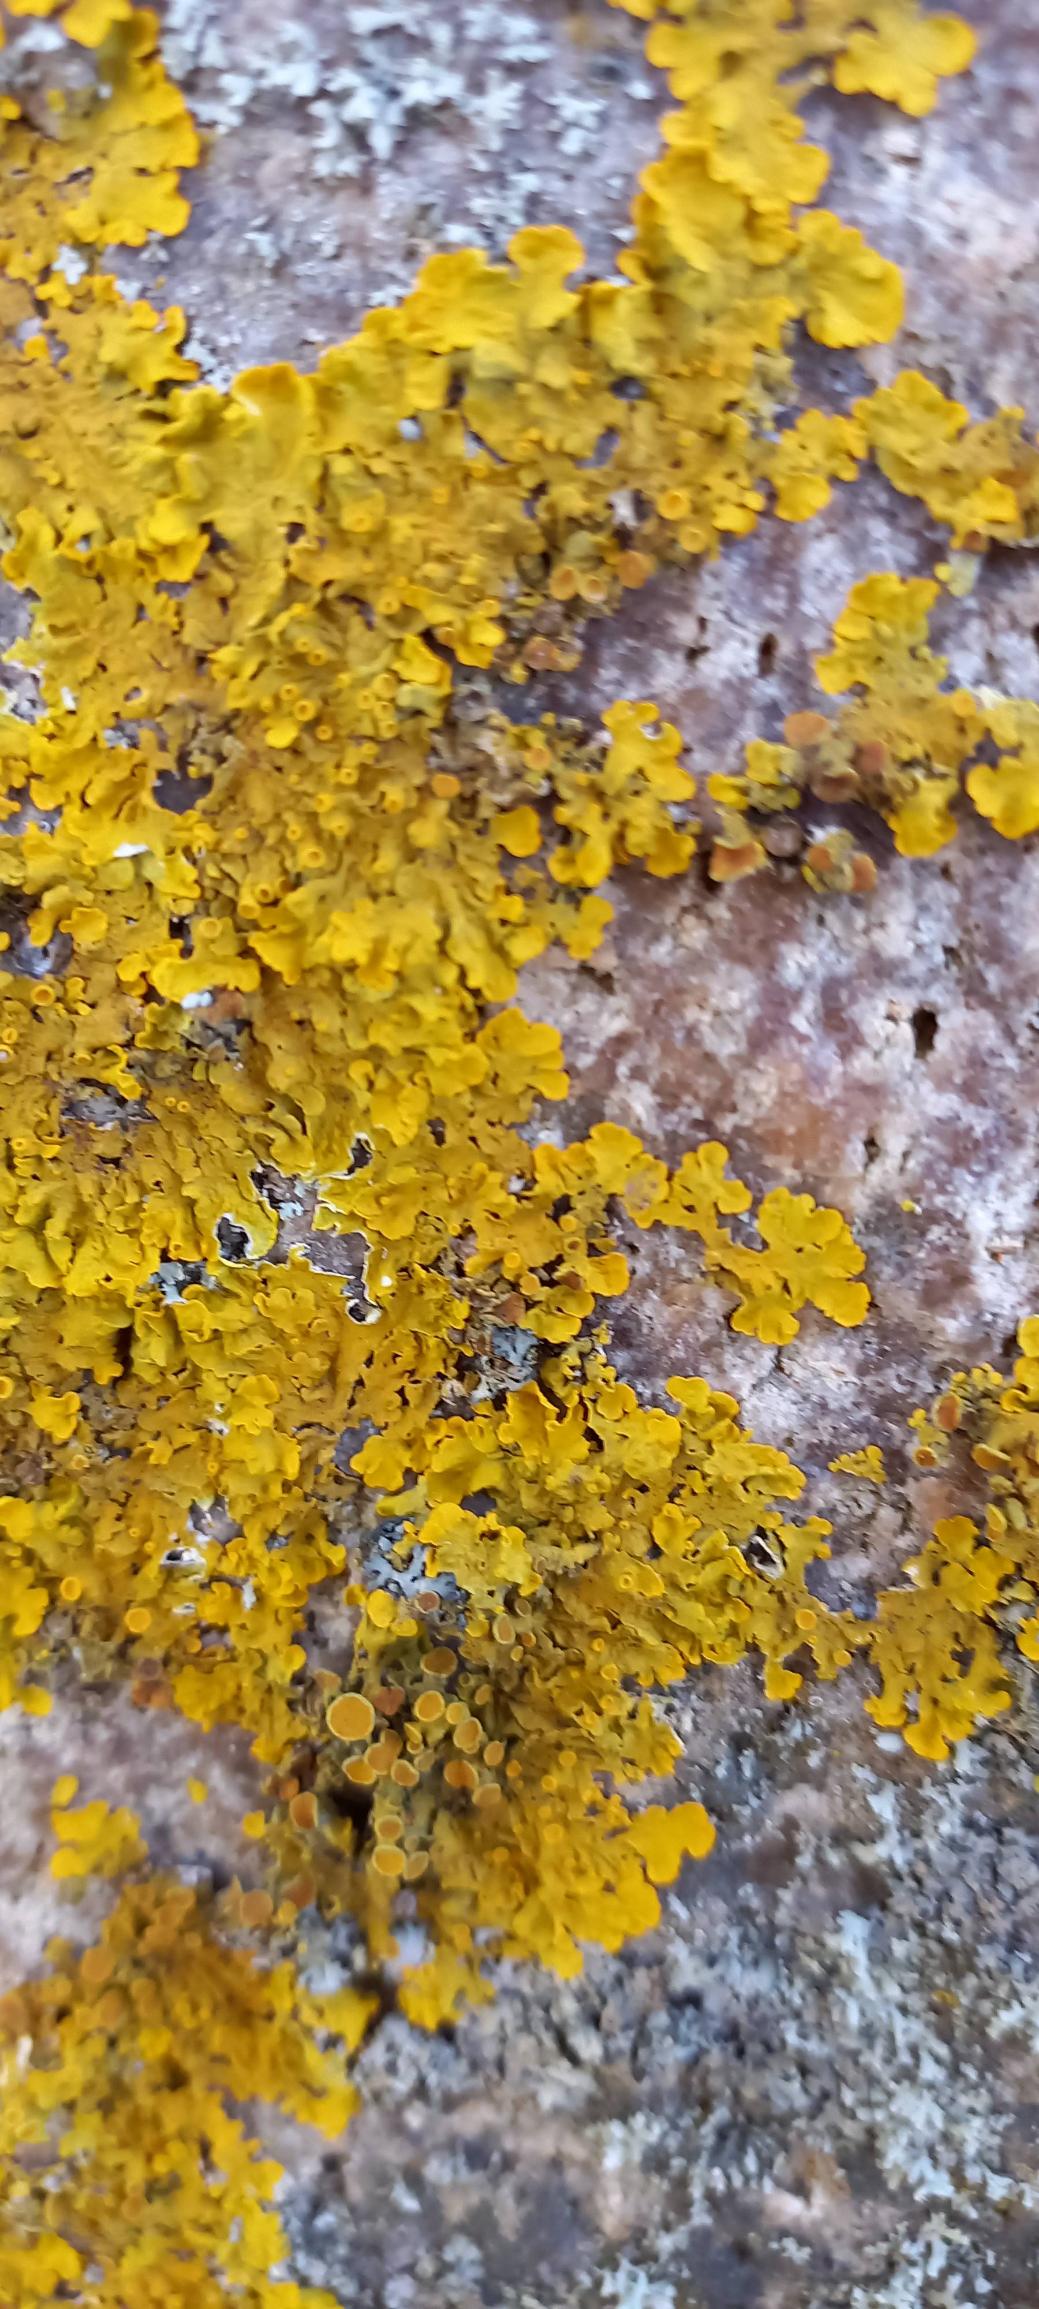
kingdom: Fungi
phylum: Ascomycota
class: Lecanoromycetes
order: Teloschistales
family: Teloschistaceae
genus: Xanthoria
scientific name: Xanthoria parietina
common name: Almindelig væggelav
